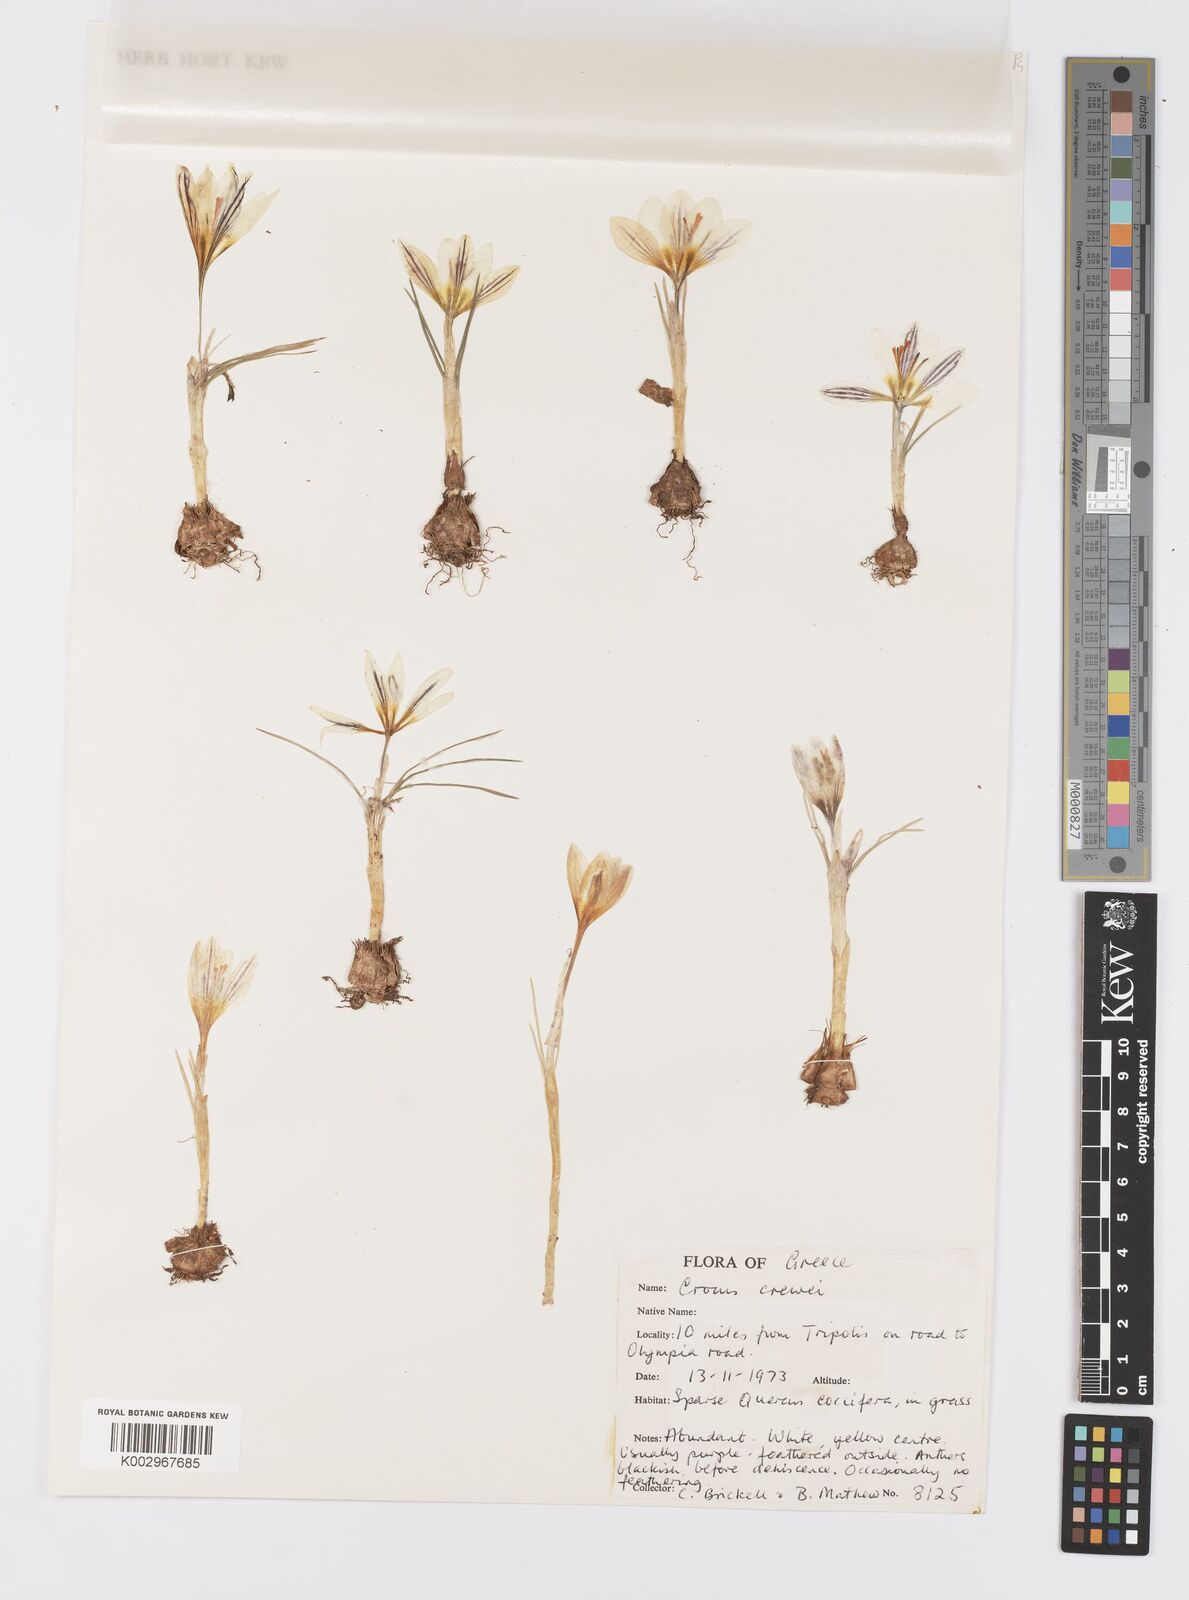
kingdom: Plantae
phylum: Tracheophyta
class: Liliopsida
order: Asparagales
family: Iridaceae
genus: Crocus
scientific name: Crocus melantherus
